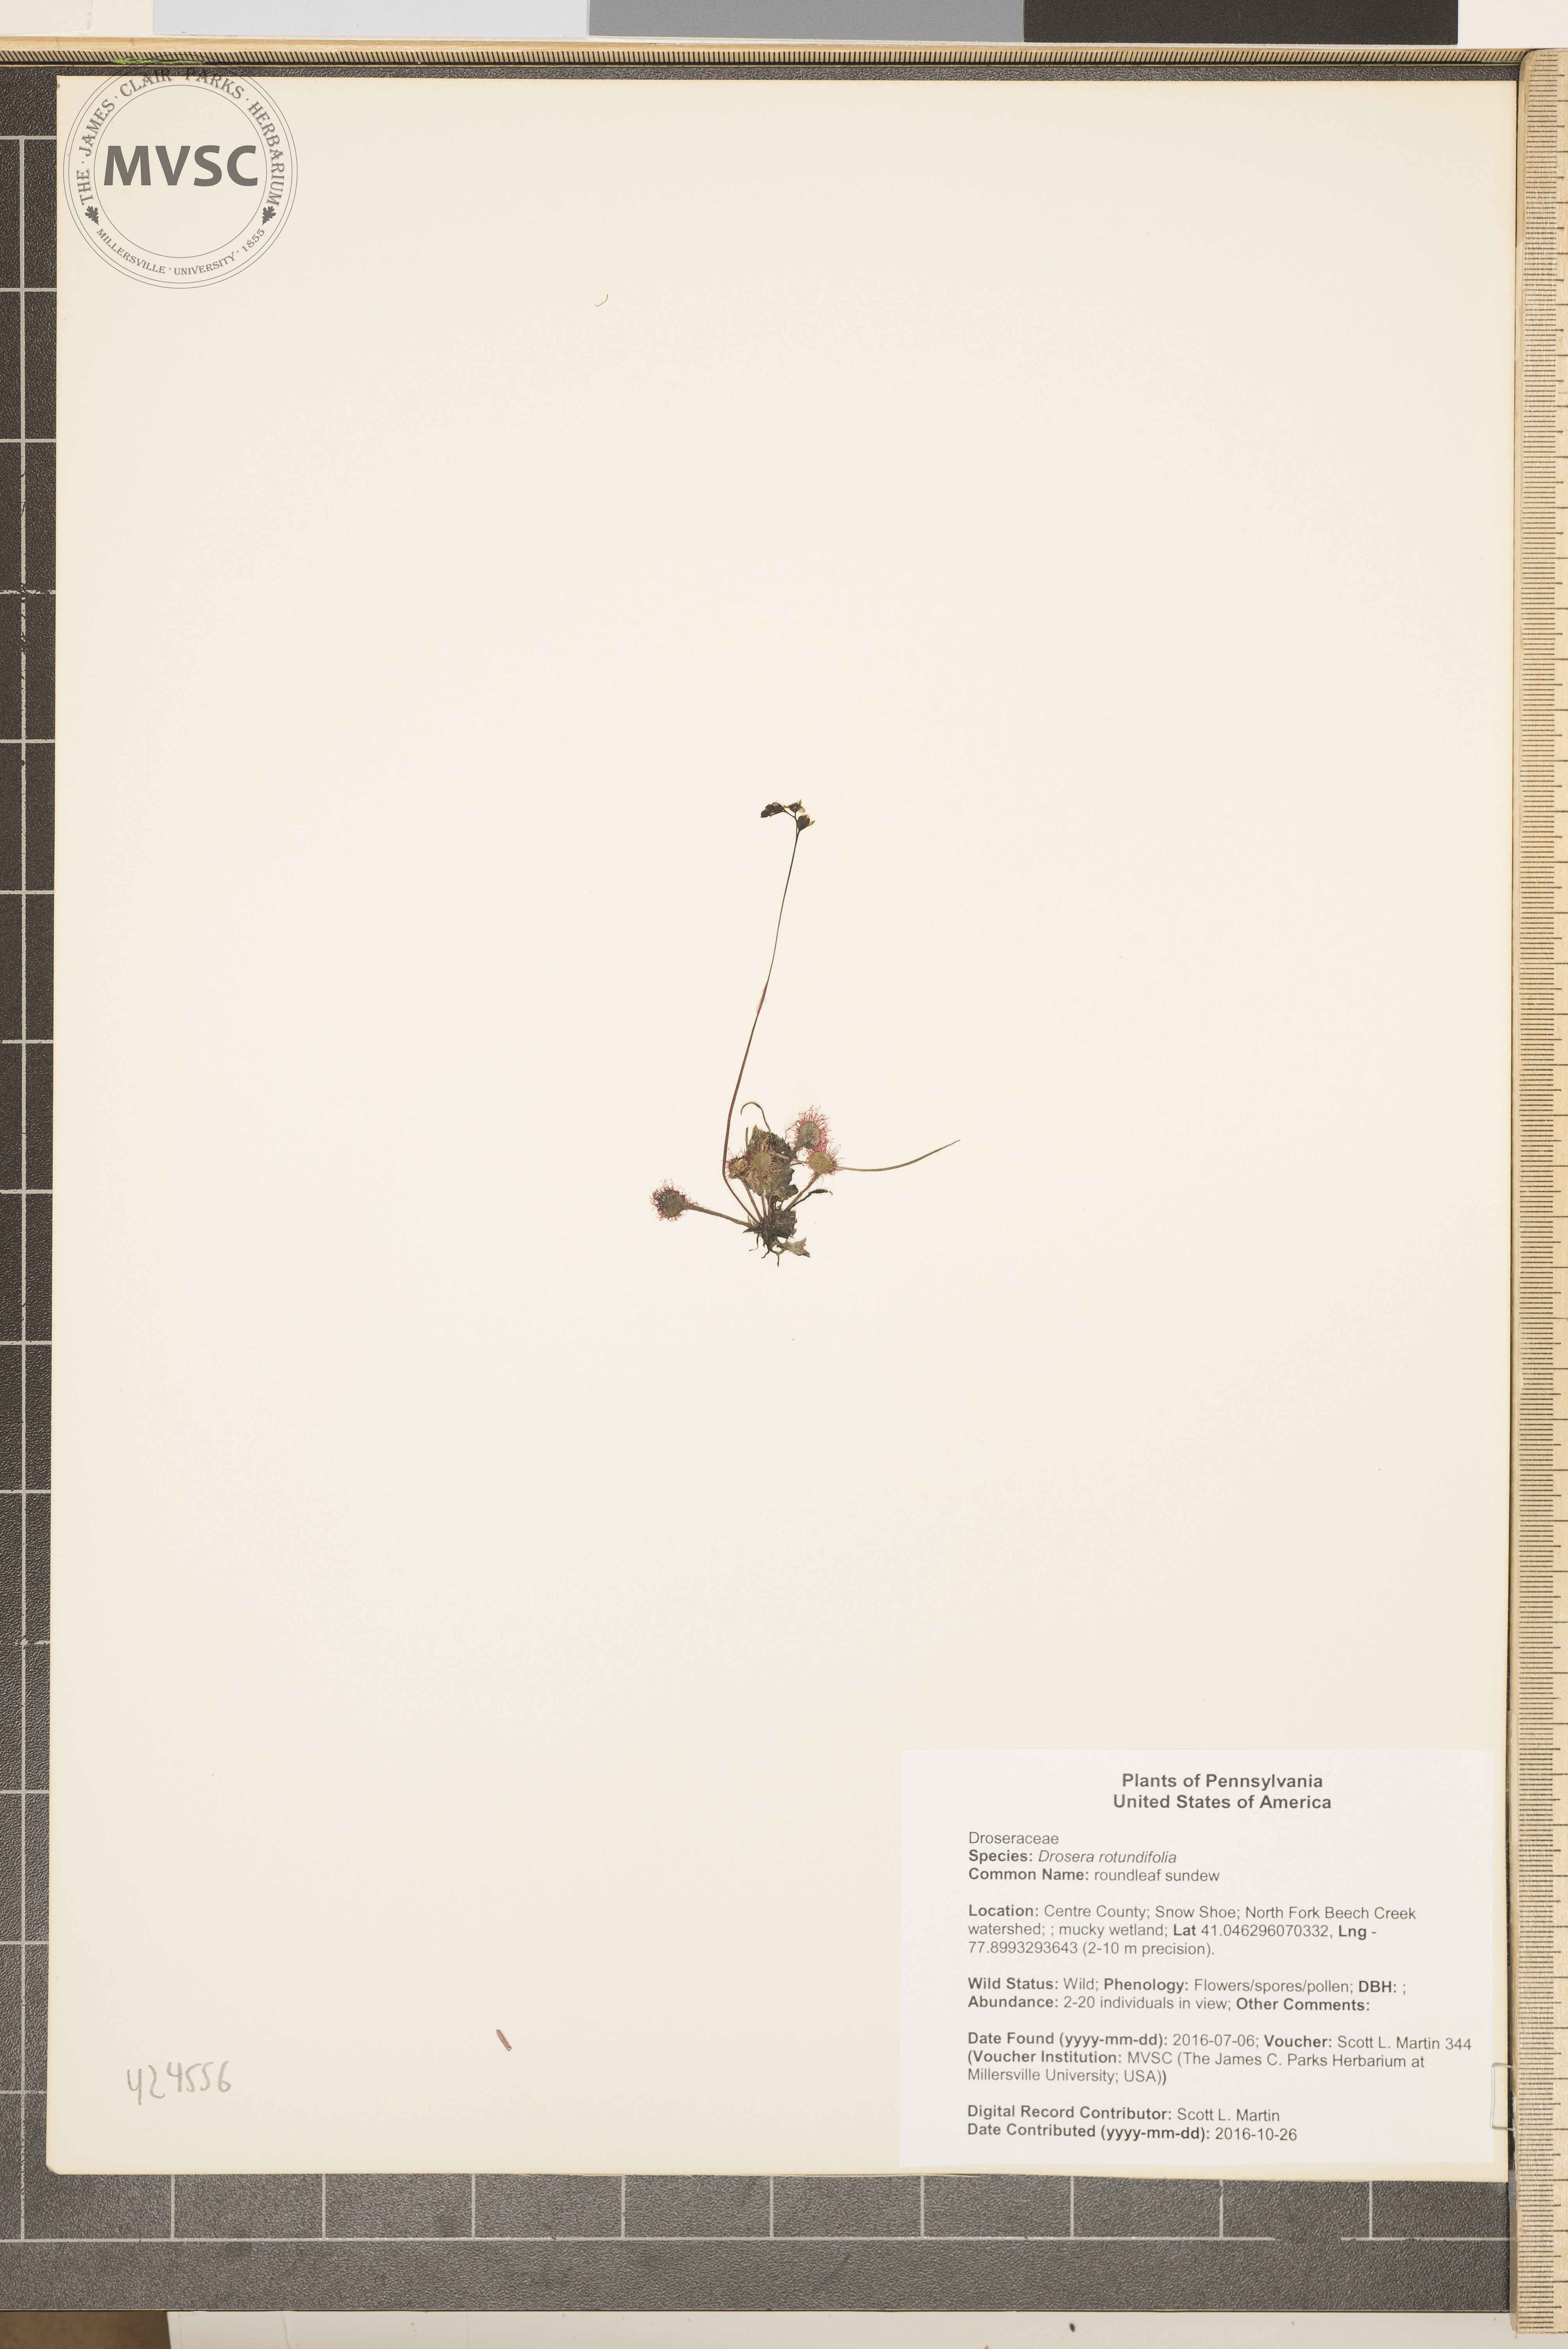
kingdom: Plantae
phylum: Tracheophyta
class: Magnoliopsida
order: Caryophyllales
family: Droseraceae
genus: Drosera
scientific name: Drosera rotundifolia
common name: roundleaf sundew
